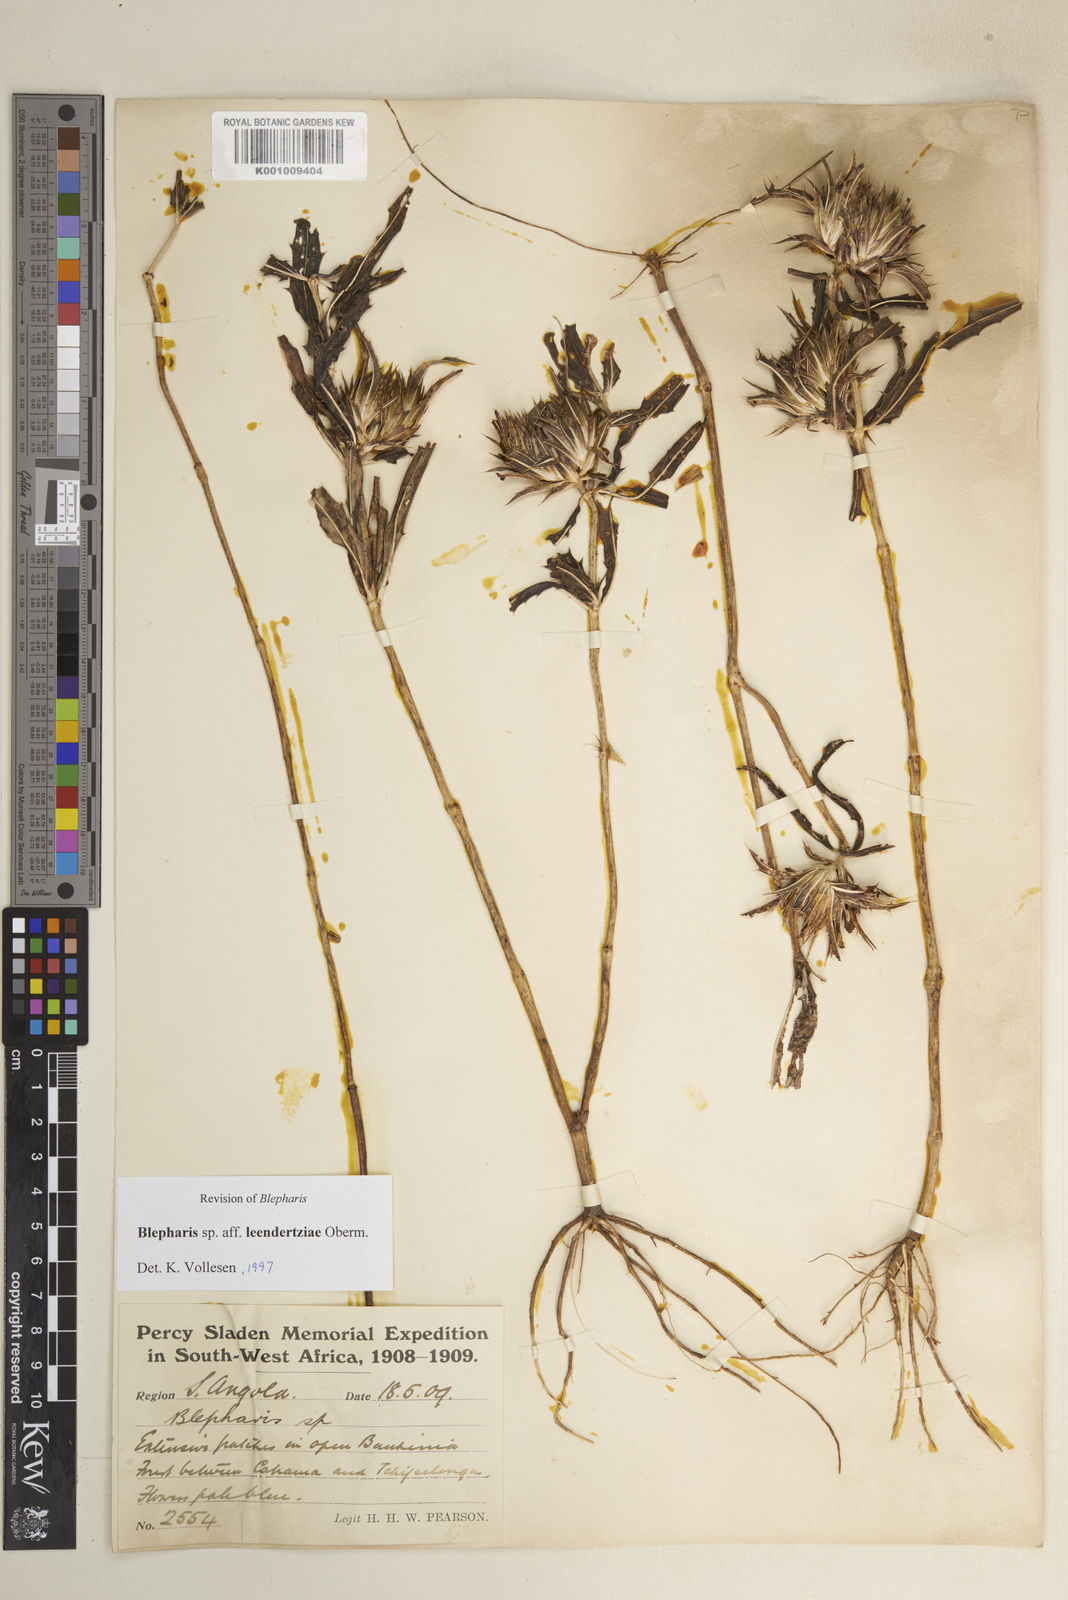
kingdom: Plantae
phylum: Tracheophyta
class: Magnoliopsida
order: Lamiales
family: Acanthaceae
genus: Blepharis
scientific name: Blepharis leendertziae
